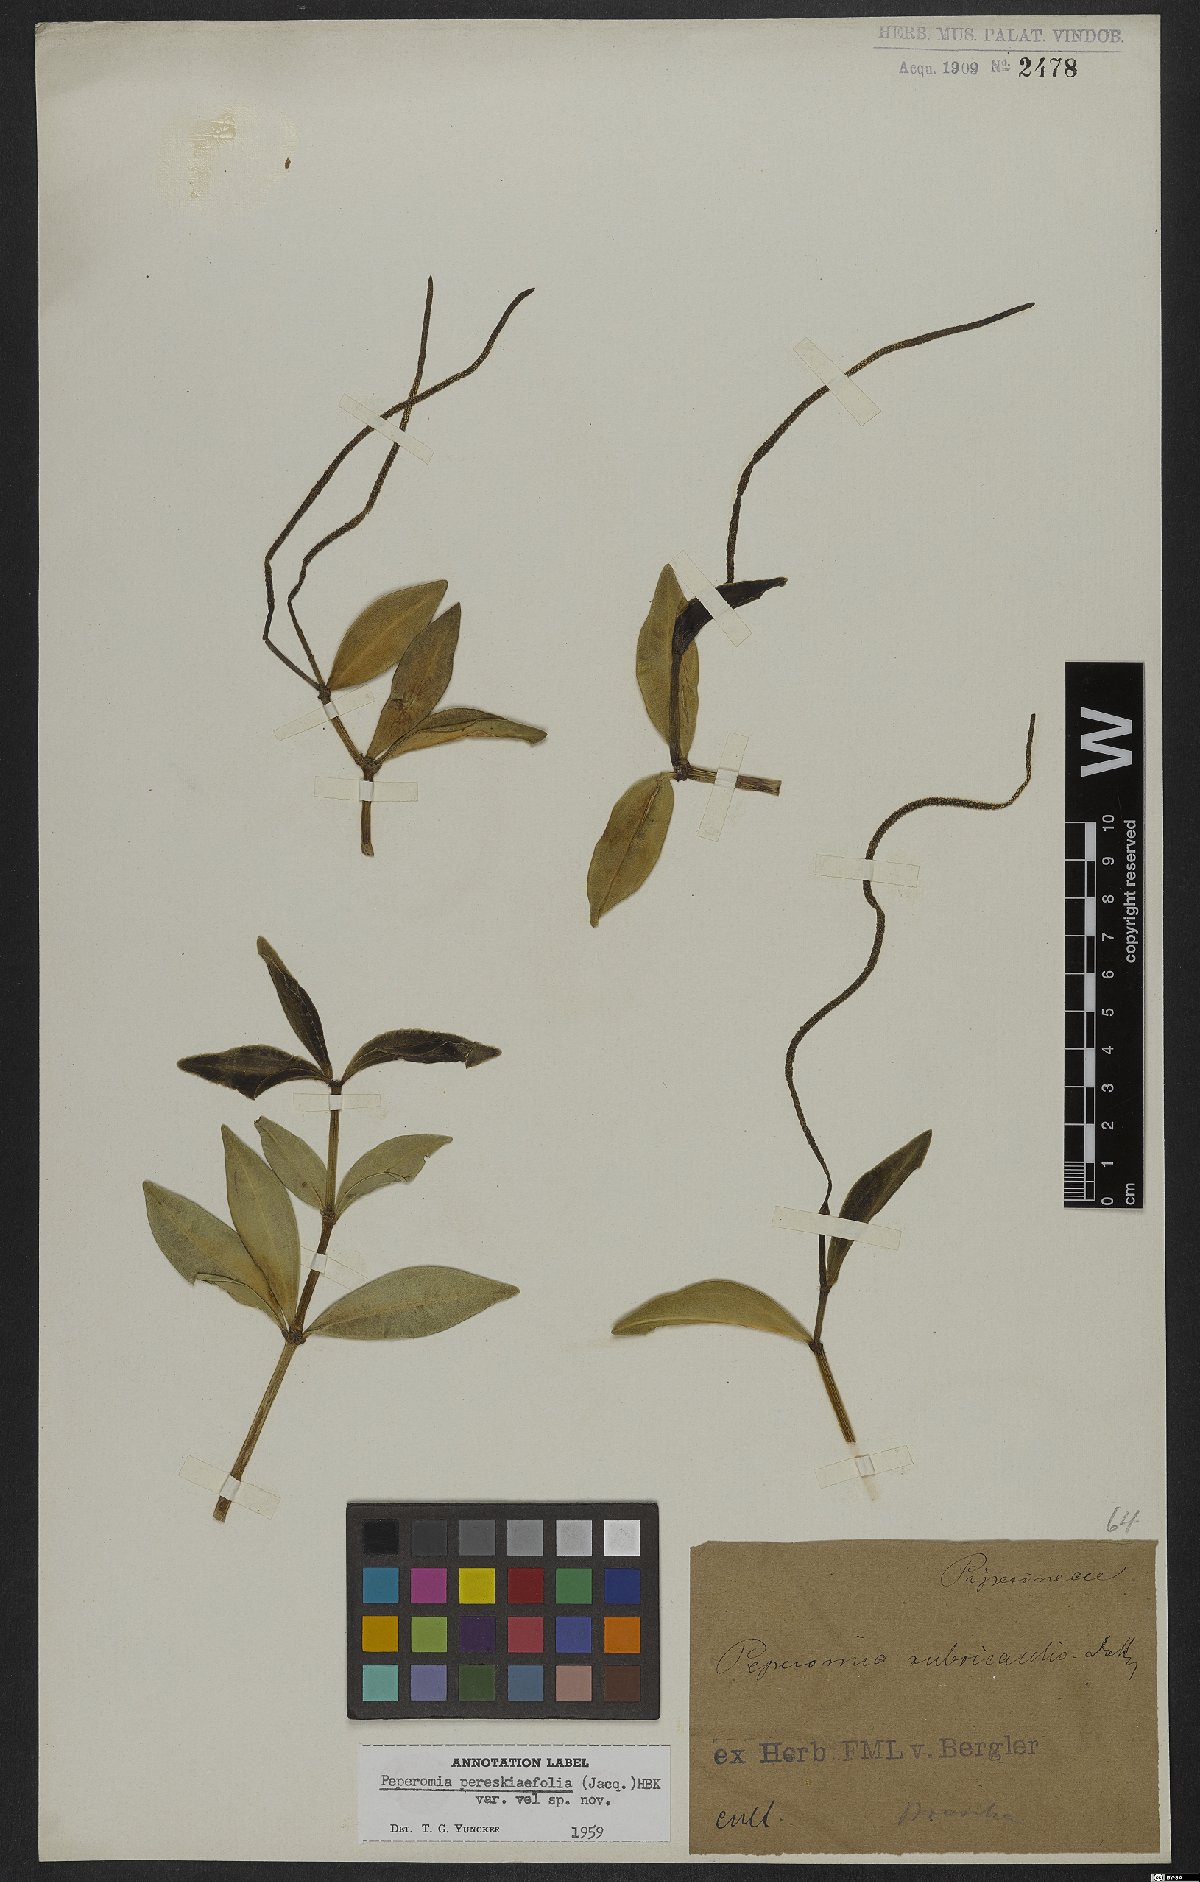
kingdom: Plantae
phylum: Tracheophyta
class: Magnoliopsida
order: Piperales
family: Piperaceae
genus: Peperomia
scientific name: Peperomia pereskiifolia
